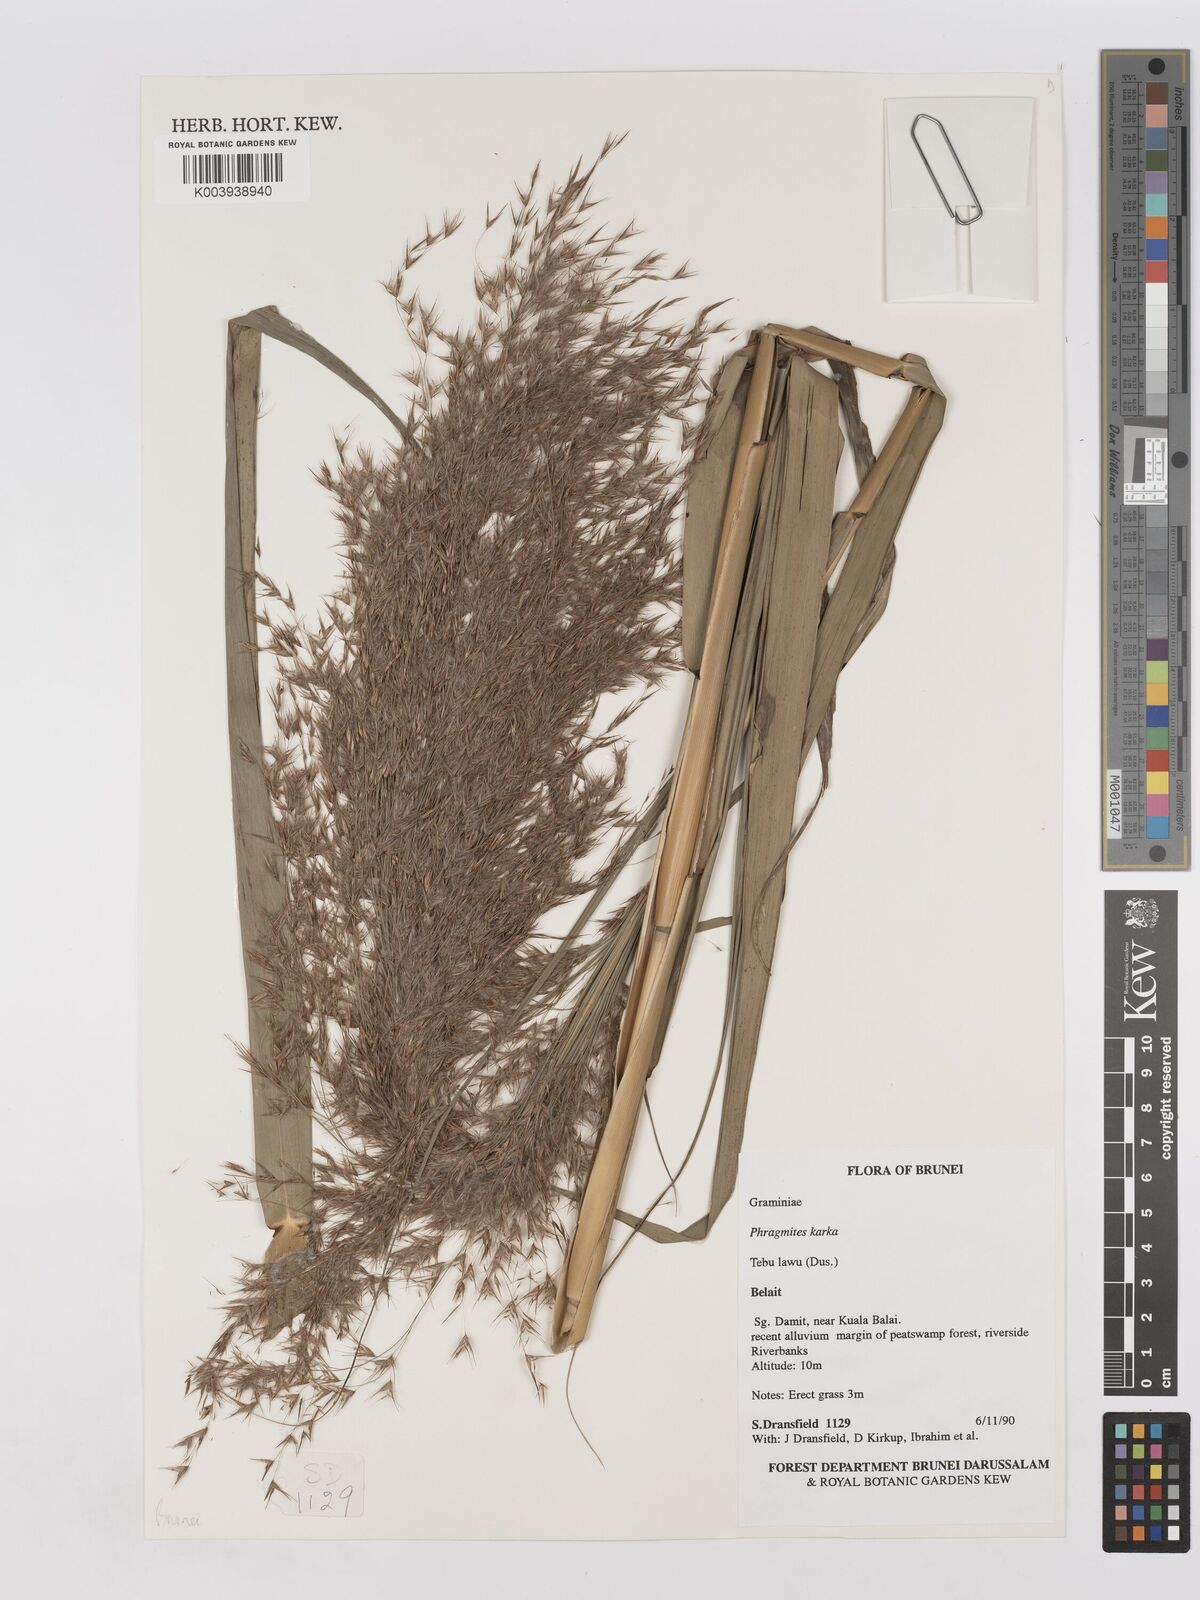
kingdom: Plantae
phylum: Tracheophyta
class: Liliopsida
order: Poales
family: Poaceae
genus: Phragmites
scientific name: Phragmites karka
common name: Tropical reed
